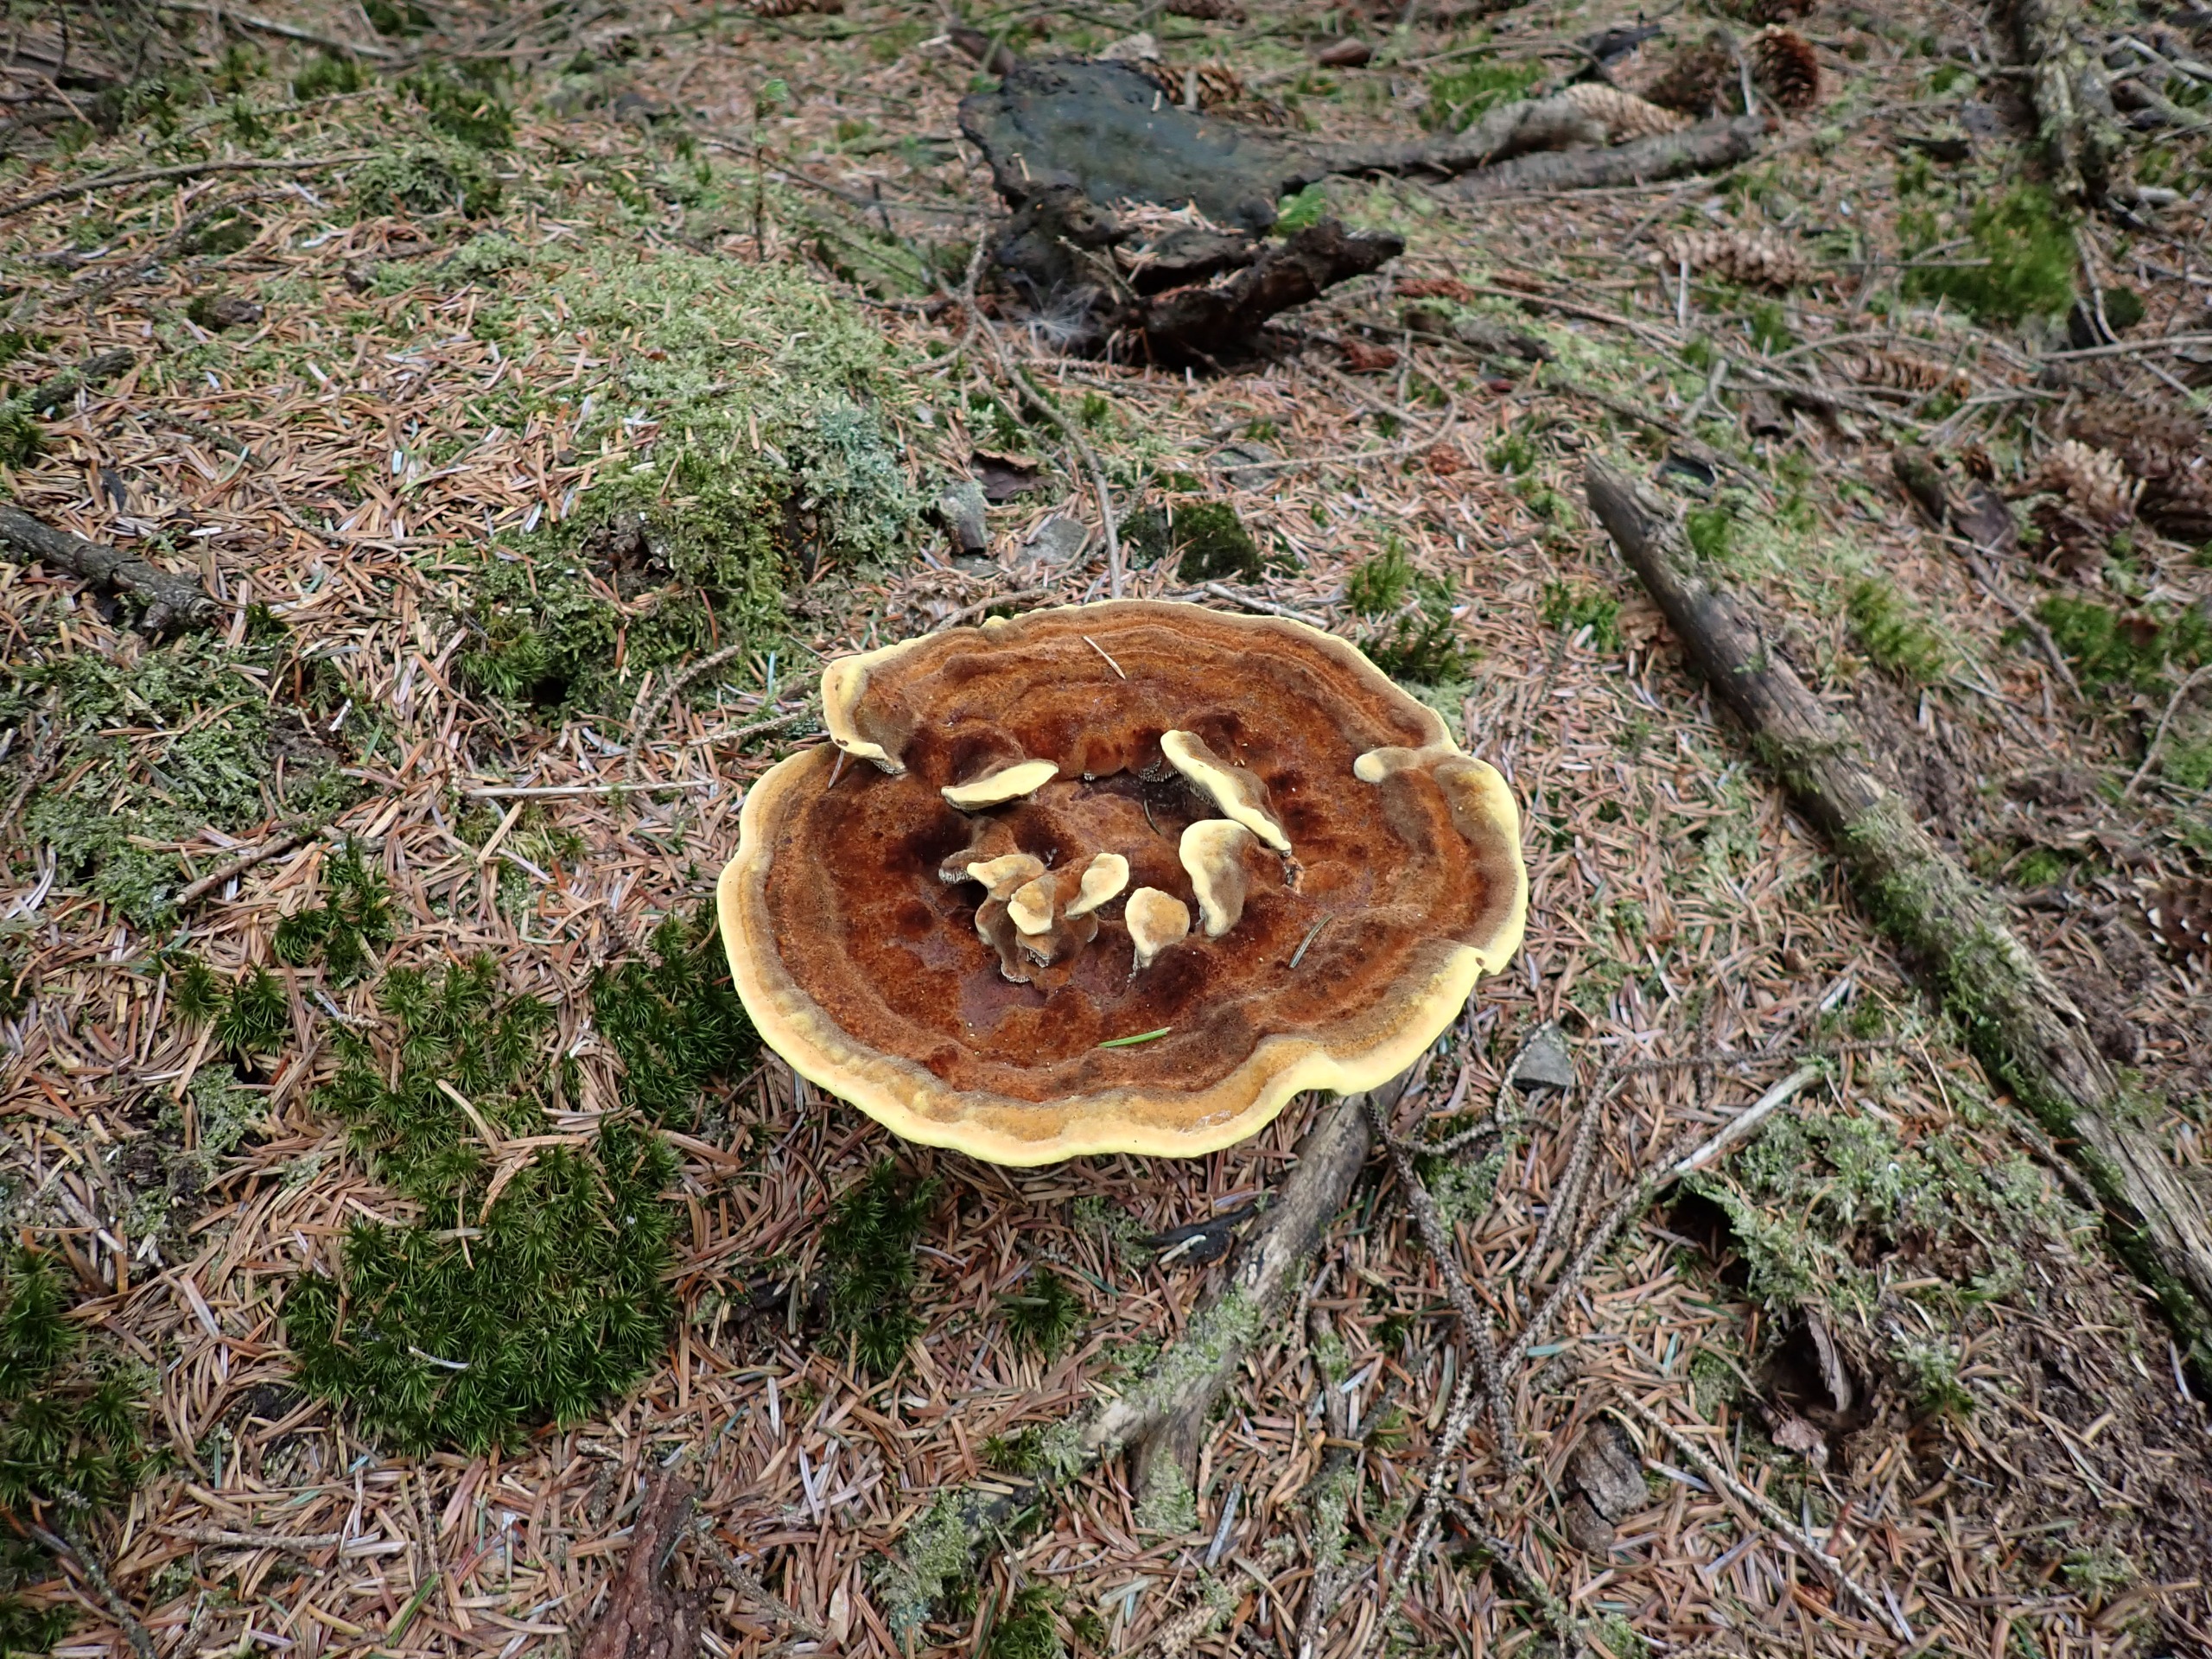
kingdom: Fungi
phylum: Basidiomycota
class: Agaricomycetes
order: Polyporales
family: Laetiporaceae
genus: Phaeolus
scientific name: Phaeolus schweinitzii
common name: Brunporesvamp
